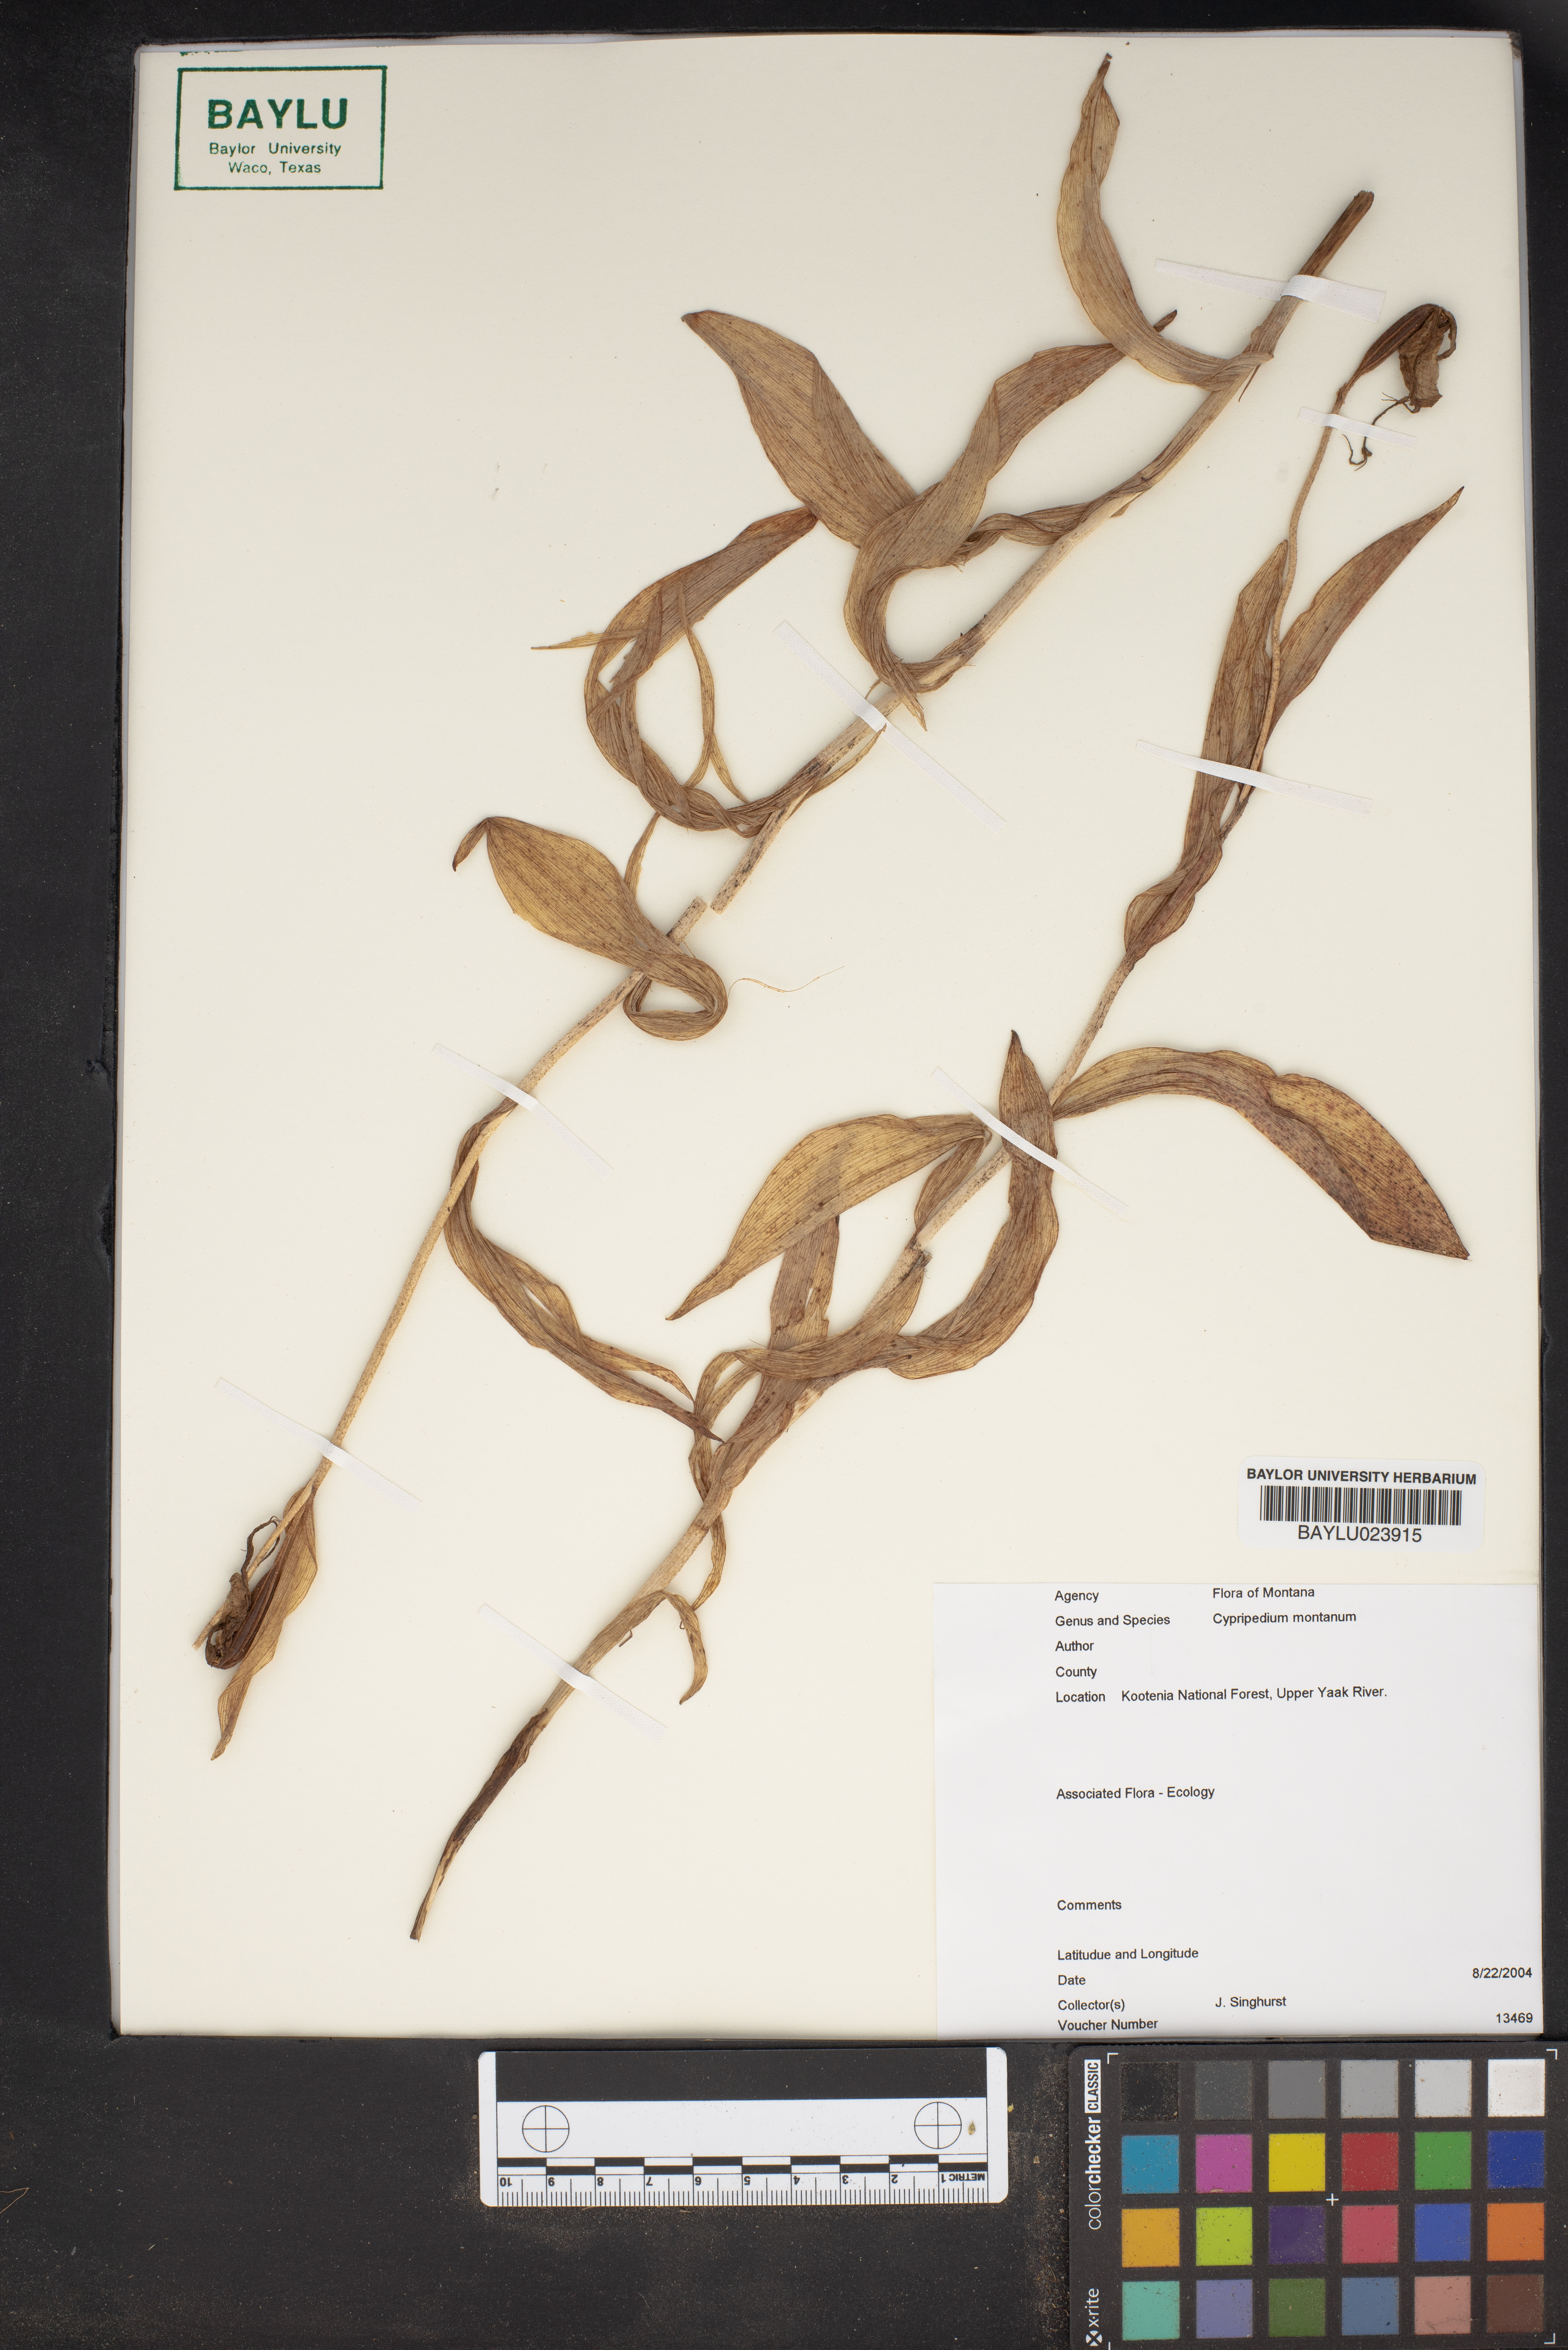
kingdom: Plantae
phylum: Tracheophyta
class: Liliopsida
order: Asparagales
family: Orchidaceae
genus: Cypripedium
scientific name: Cypripedium montanum
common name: Mountain lady's-slipper
